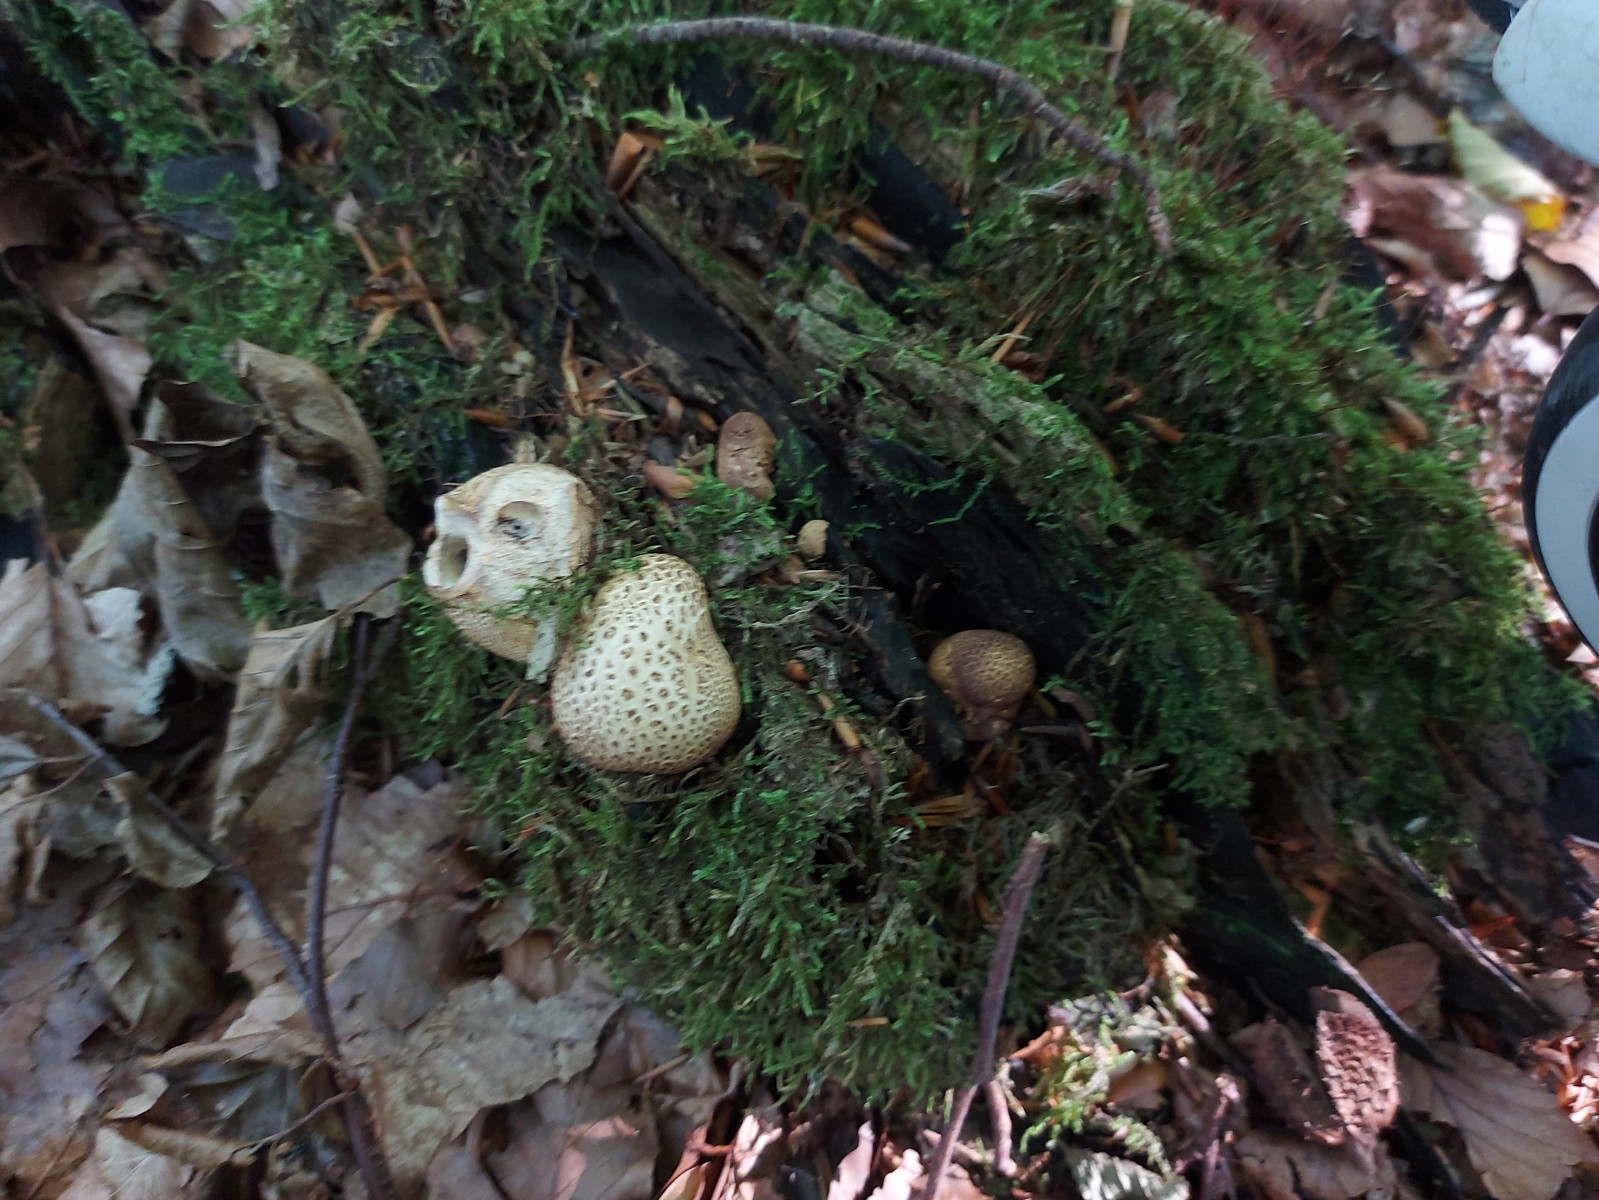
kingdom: Fungi
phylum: Basidiomycota
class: Agaricomycetes
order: Boletales
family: Sclerodermataceae
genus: Scleroderma
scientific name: Scleroderma citrinum
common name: almindelig bruskbold
